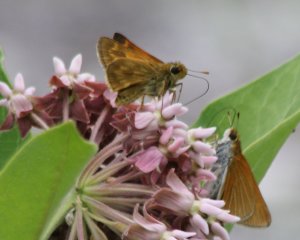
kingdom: Animalia
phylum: Arthropoda
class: Insecta
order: Lepidoptera
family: Hesperiidae
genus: Euphyes
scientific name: Euphyes bimacula
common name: Two-spotted Skipper
